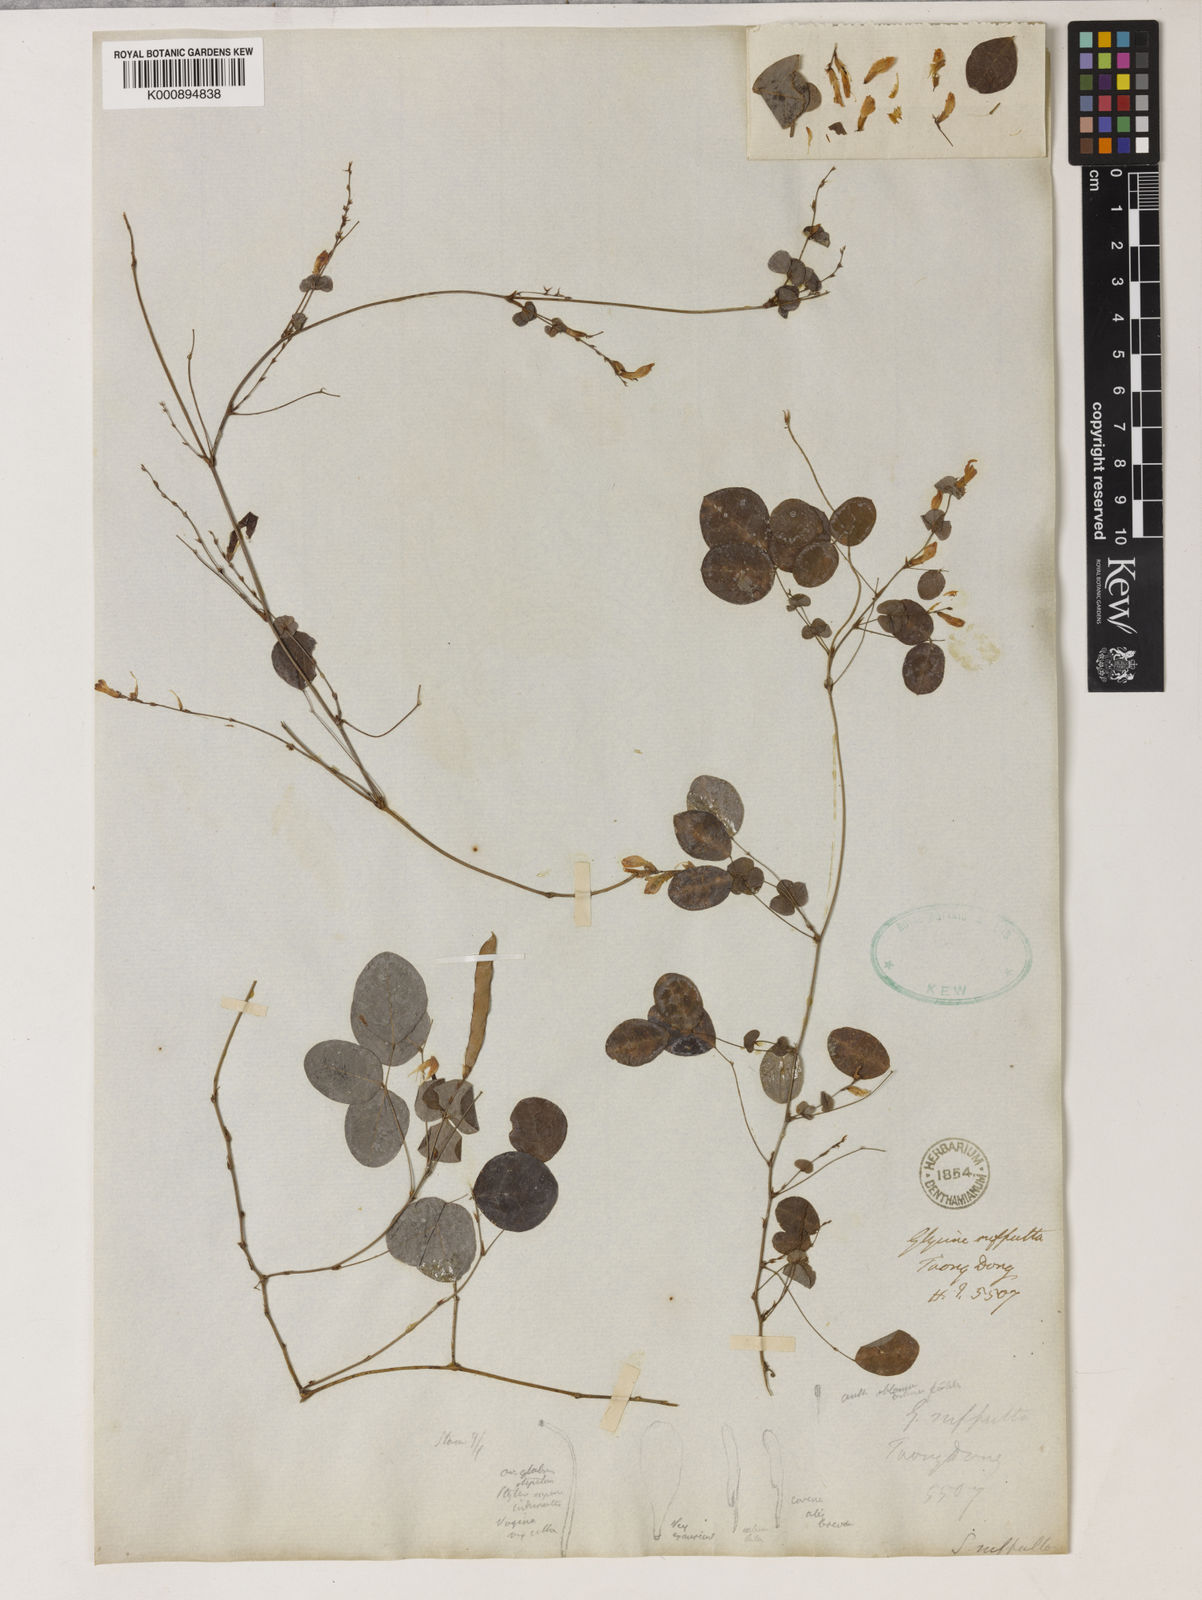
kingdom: Plantae
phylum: Tracheophyta
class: Magnoliopsida
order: Fabales
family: Fabaceae
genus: Shuteria
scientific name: Shuteria suffulta
